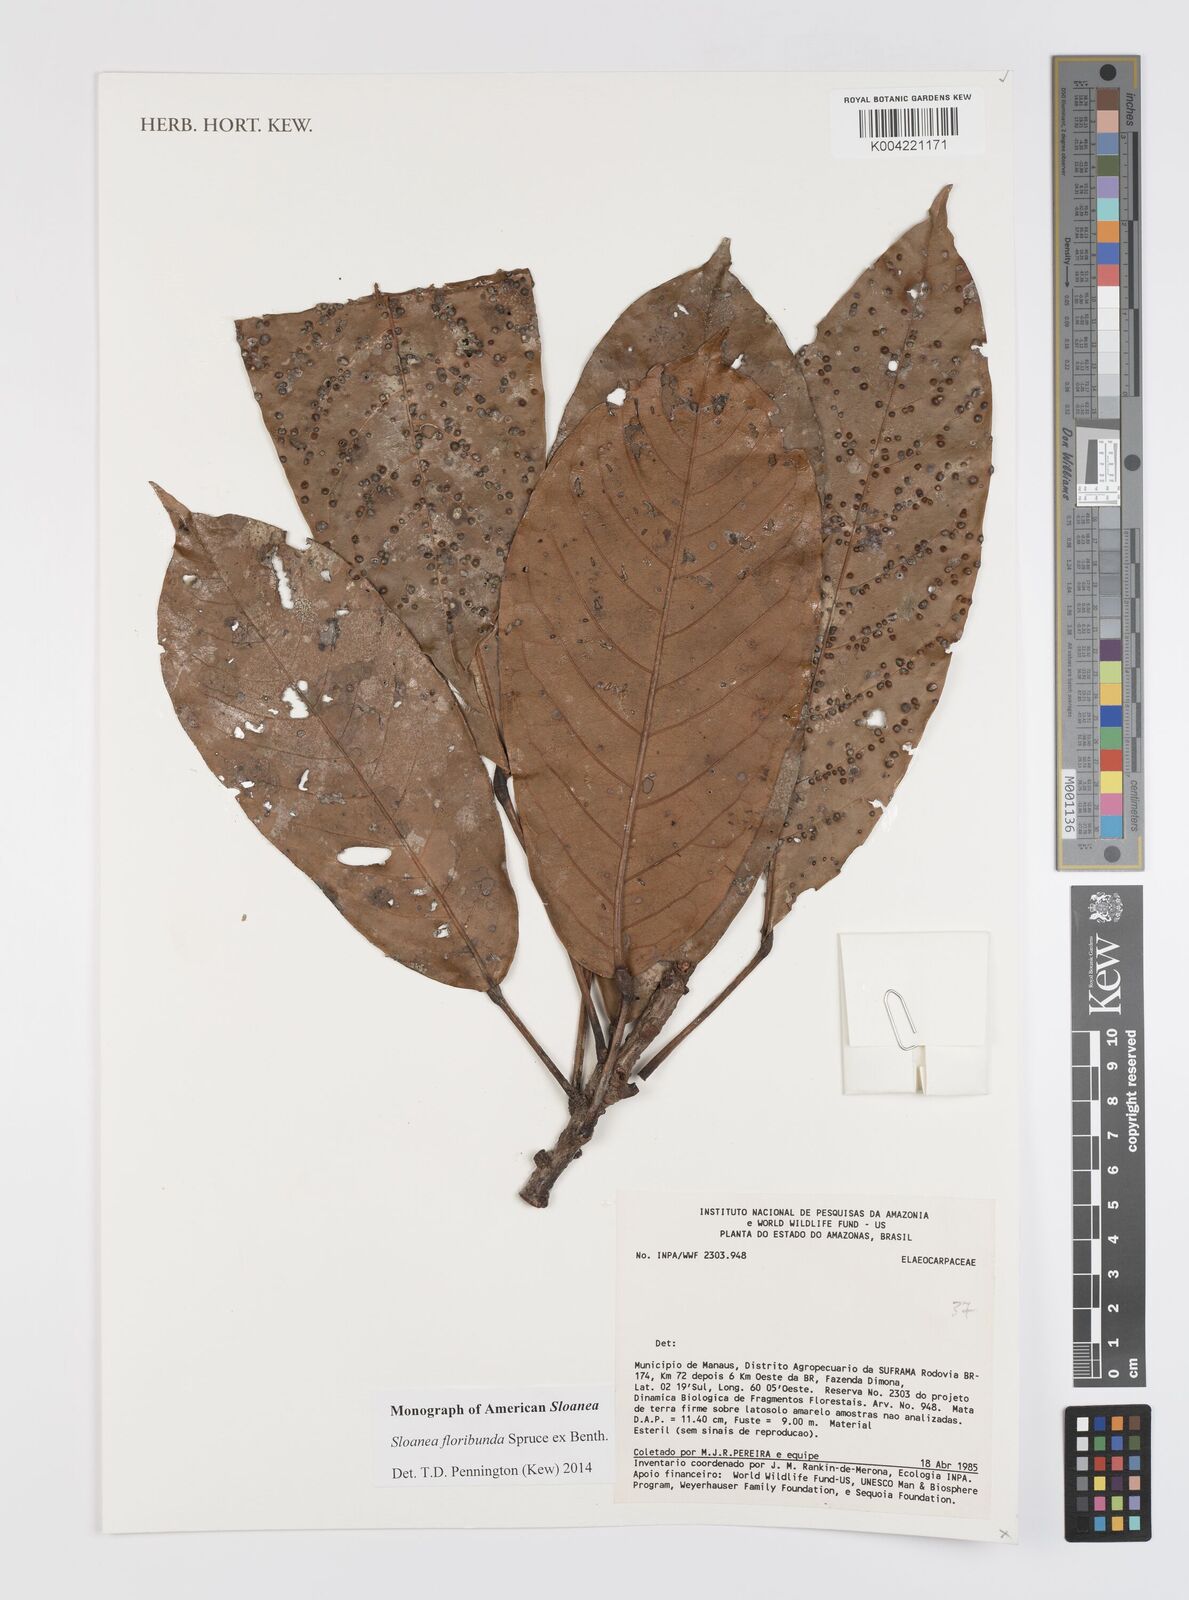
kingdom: Plantae
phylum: Tracheophyta
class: Magnoliopsida
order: Oxalidales
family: Elaeocarpaceae
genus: Sloanea
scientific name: Sloanea floribunda
